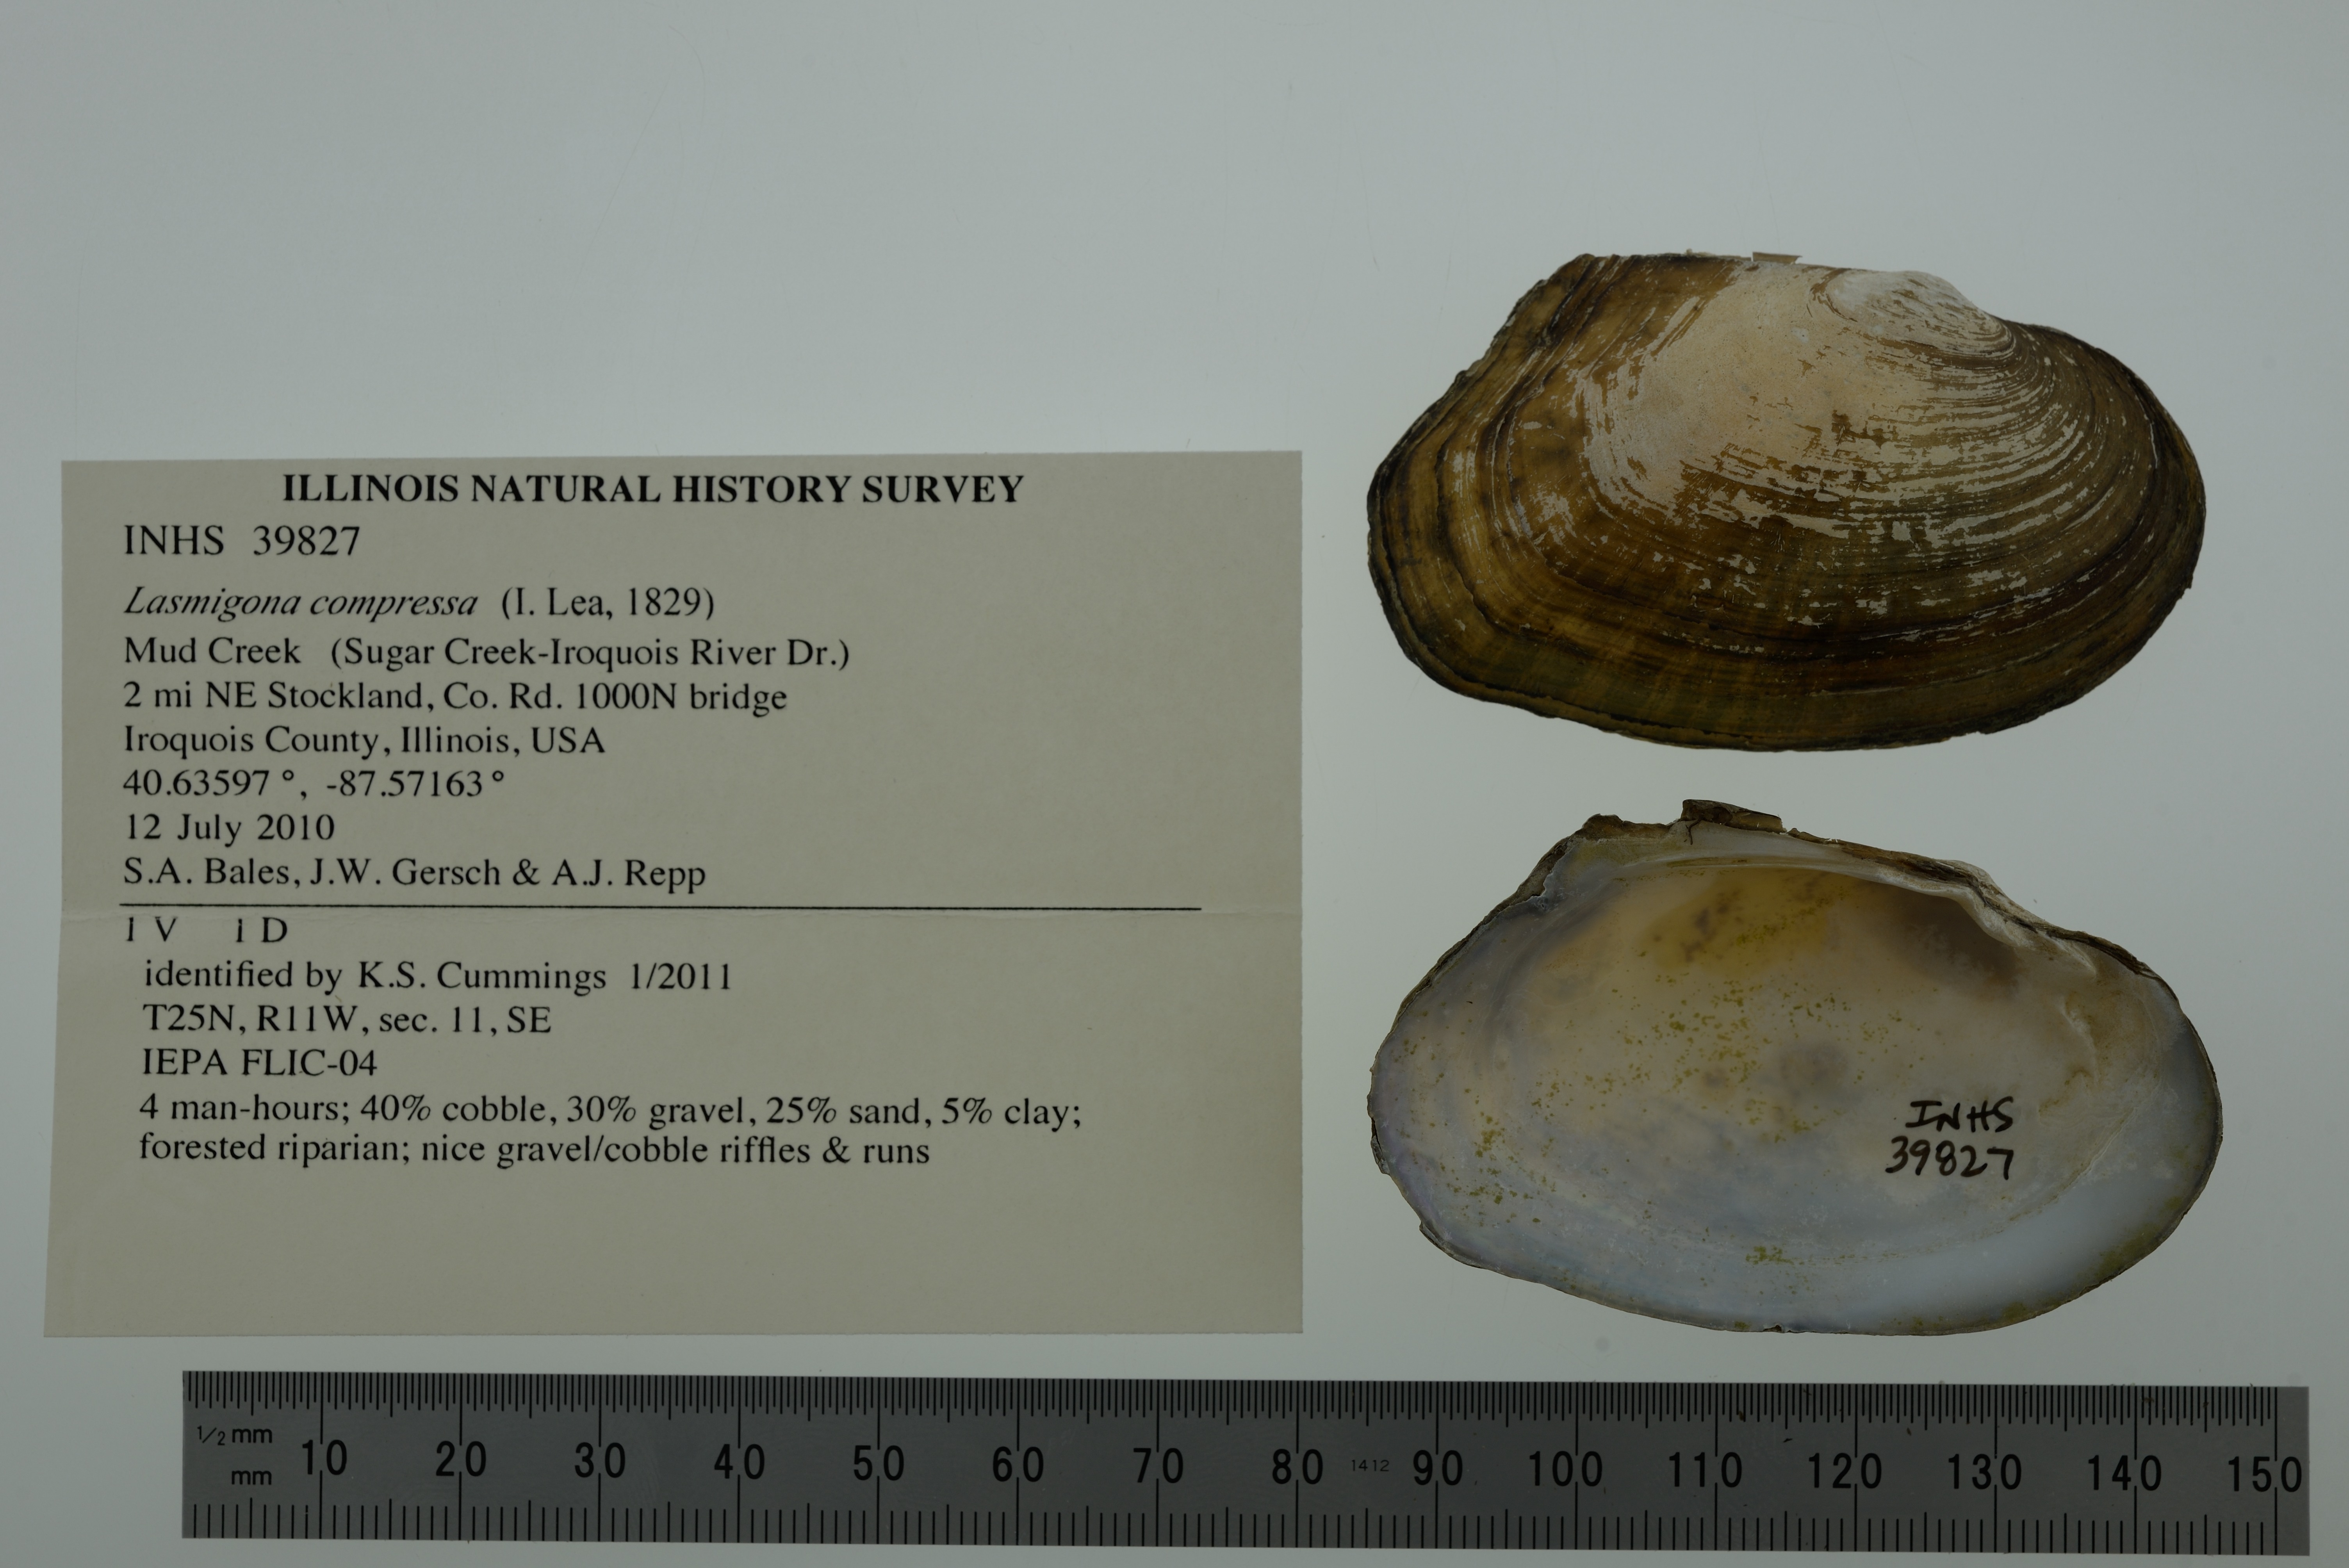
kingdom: Animalia
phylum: Mollusca
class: Bivalvia
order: Unionida
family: Unionidae
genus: Lasmigona
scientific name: Lasmigona compressa
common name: Creek heelsplitter
